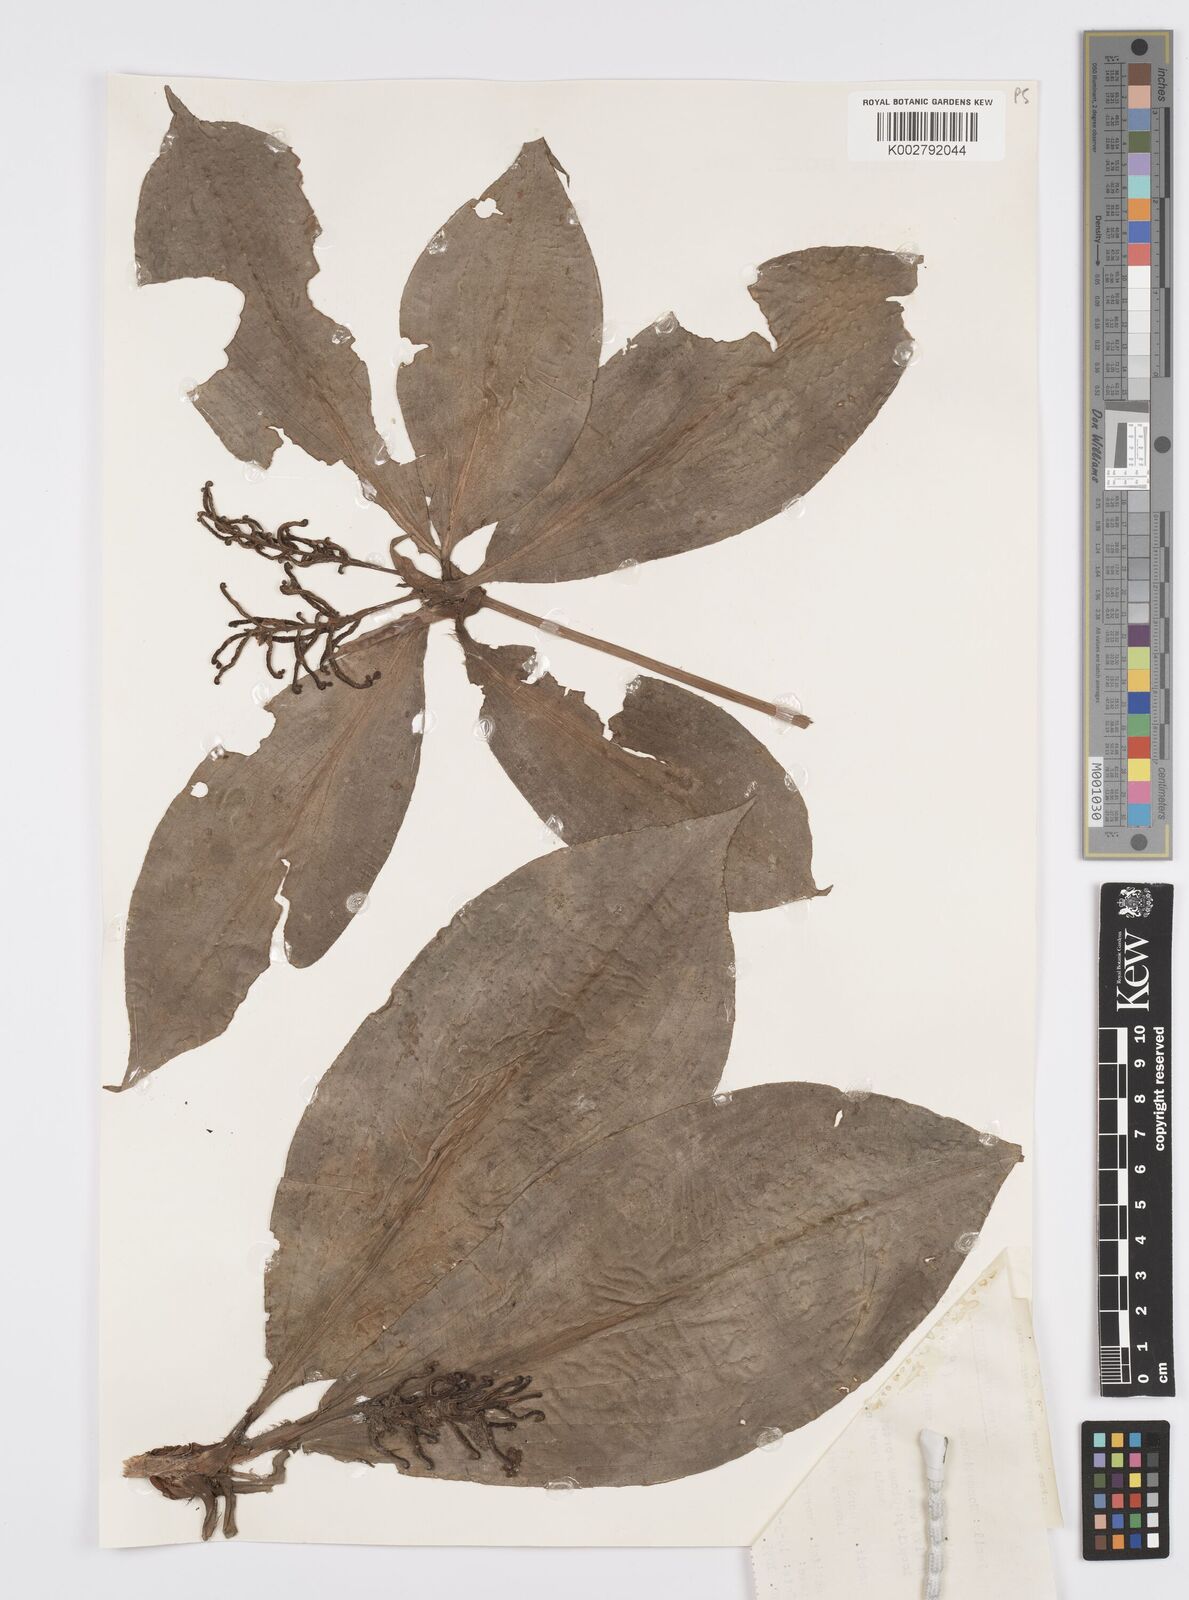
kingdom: Plantae
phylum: Tracheophyta
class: Liliopsida
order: Commelinales
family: Commelinaceae
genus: Palisota
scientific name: Palisota ambigua
